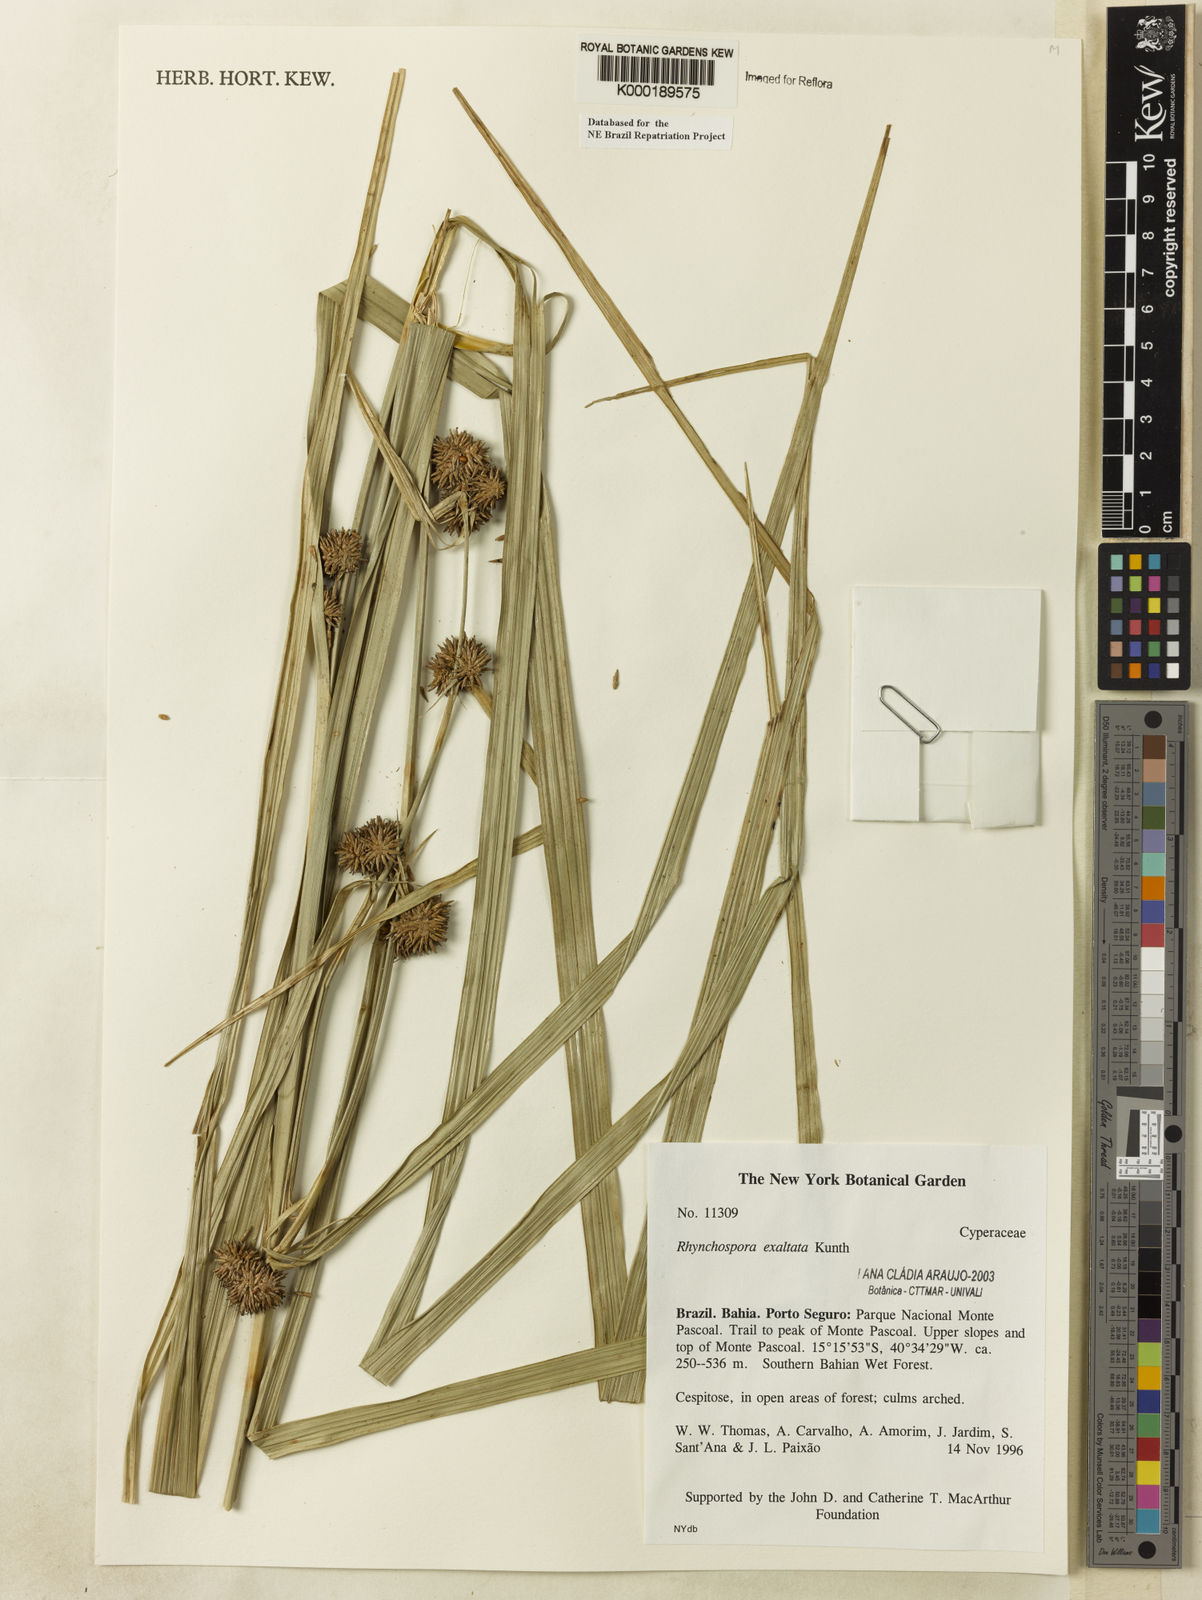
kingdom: Plantae
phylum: Tracheophyta
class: Liliopsida
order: Poales
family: Cyperaceae
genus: Rhynchospora
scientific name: Rhynchospora exaltata
